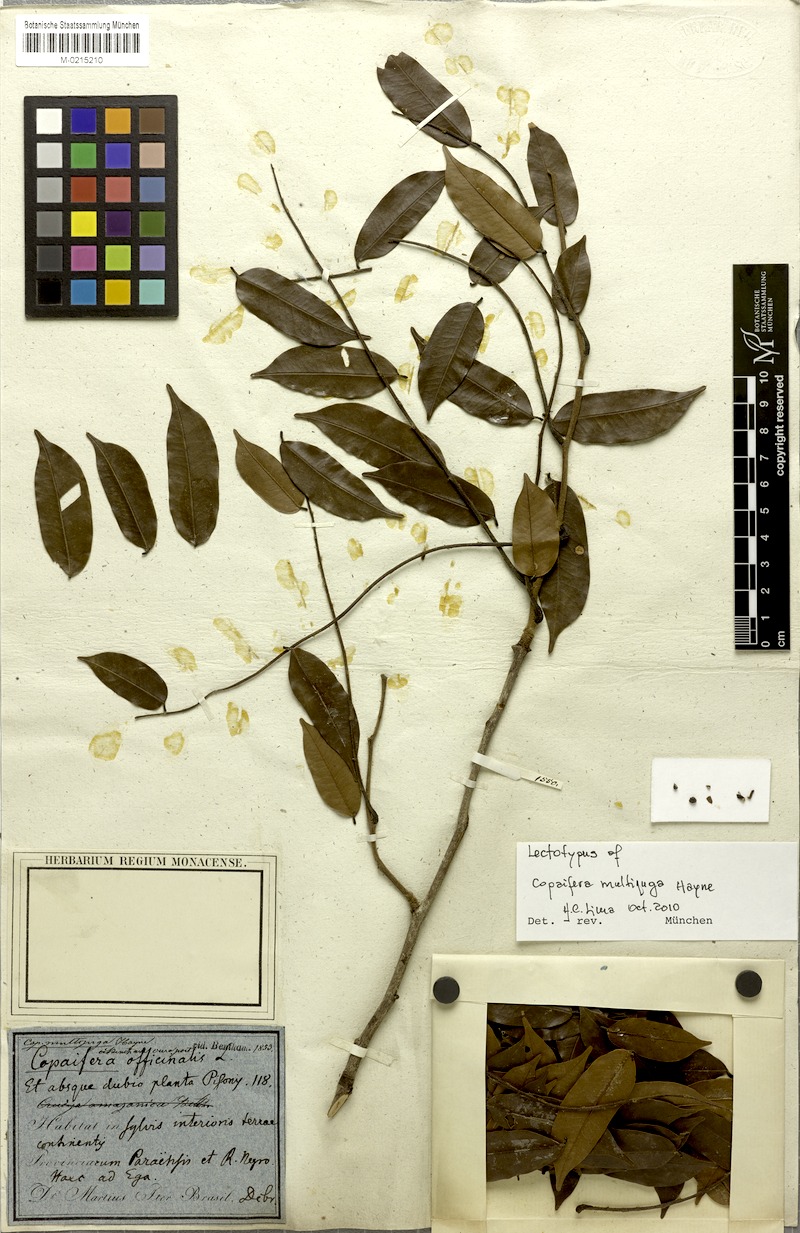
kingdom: Plantae
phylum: Tracheophyta
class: Magnoliopsida
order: Fabales
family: Fabaceae
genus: Copaifera
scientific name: Copaifera multijuga
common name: Brazilian copaiba
